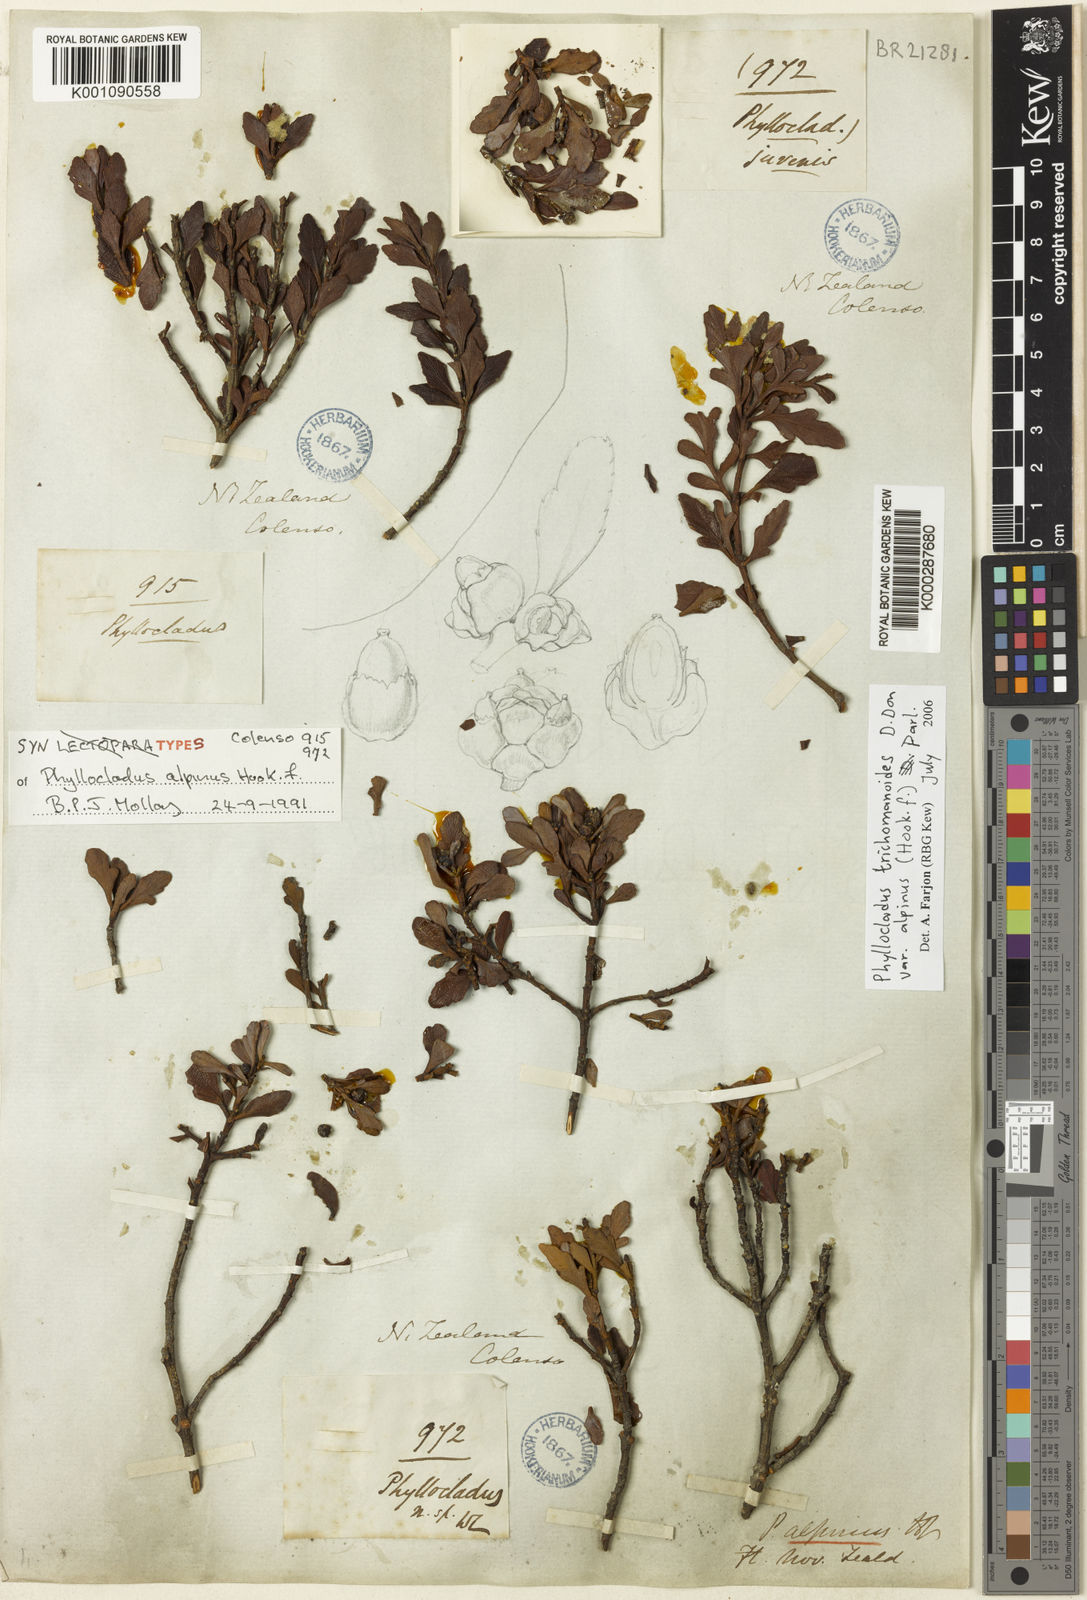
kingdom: Plantae
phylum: Tracheophyta
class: Pinopsida
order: Pinales
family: Phyllocladaceae
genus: Phyllocladus
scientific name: Phyllocladus trichomanoides
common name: Celery pine
